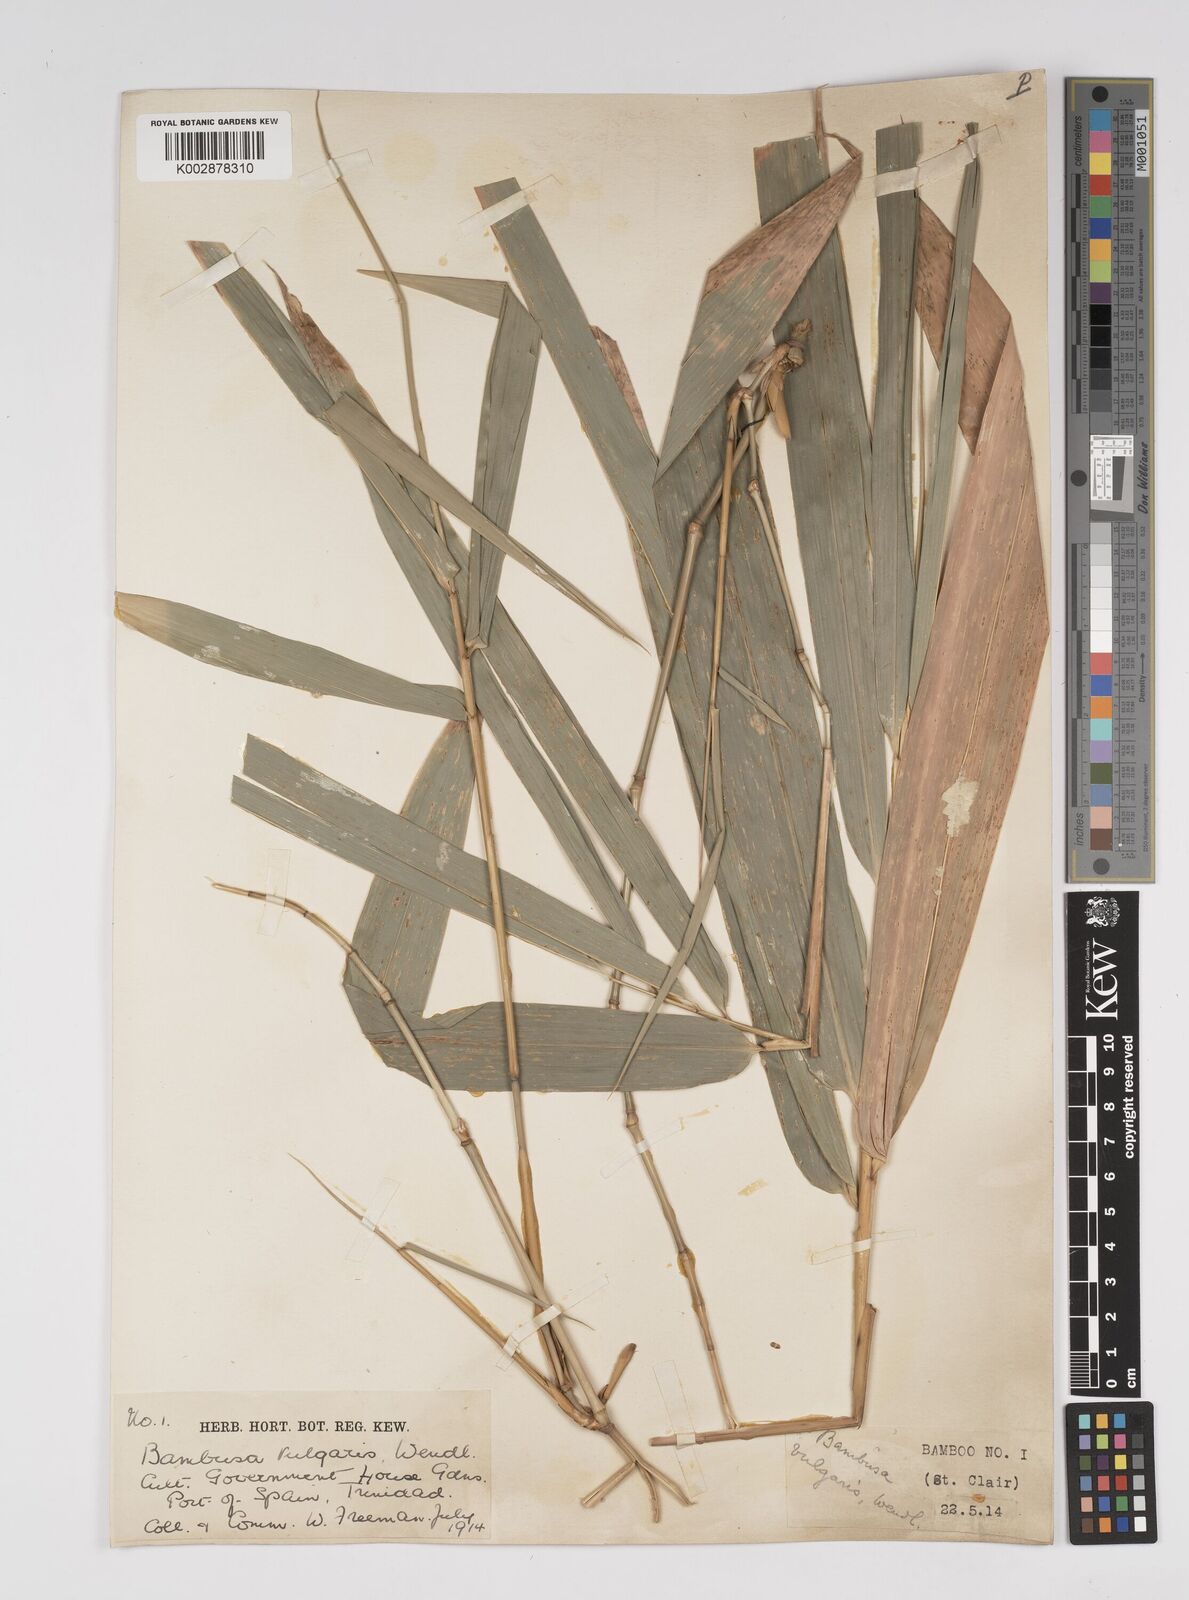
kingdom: Plantae
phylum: Tracheophyta
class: Liliopsida
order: Poales
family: Poaceae
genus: Bambusa
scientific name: Bambusa vulgaris
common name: Common bamboo
